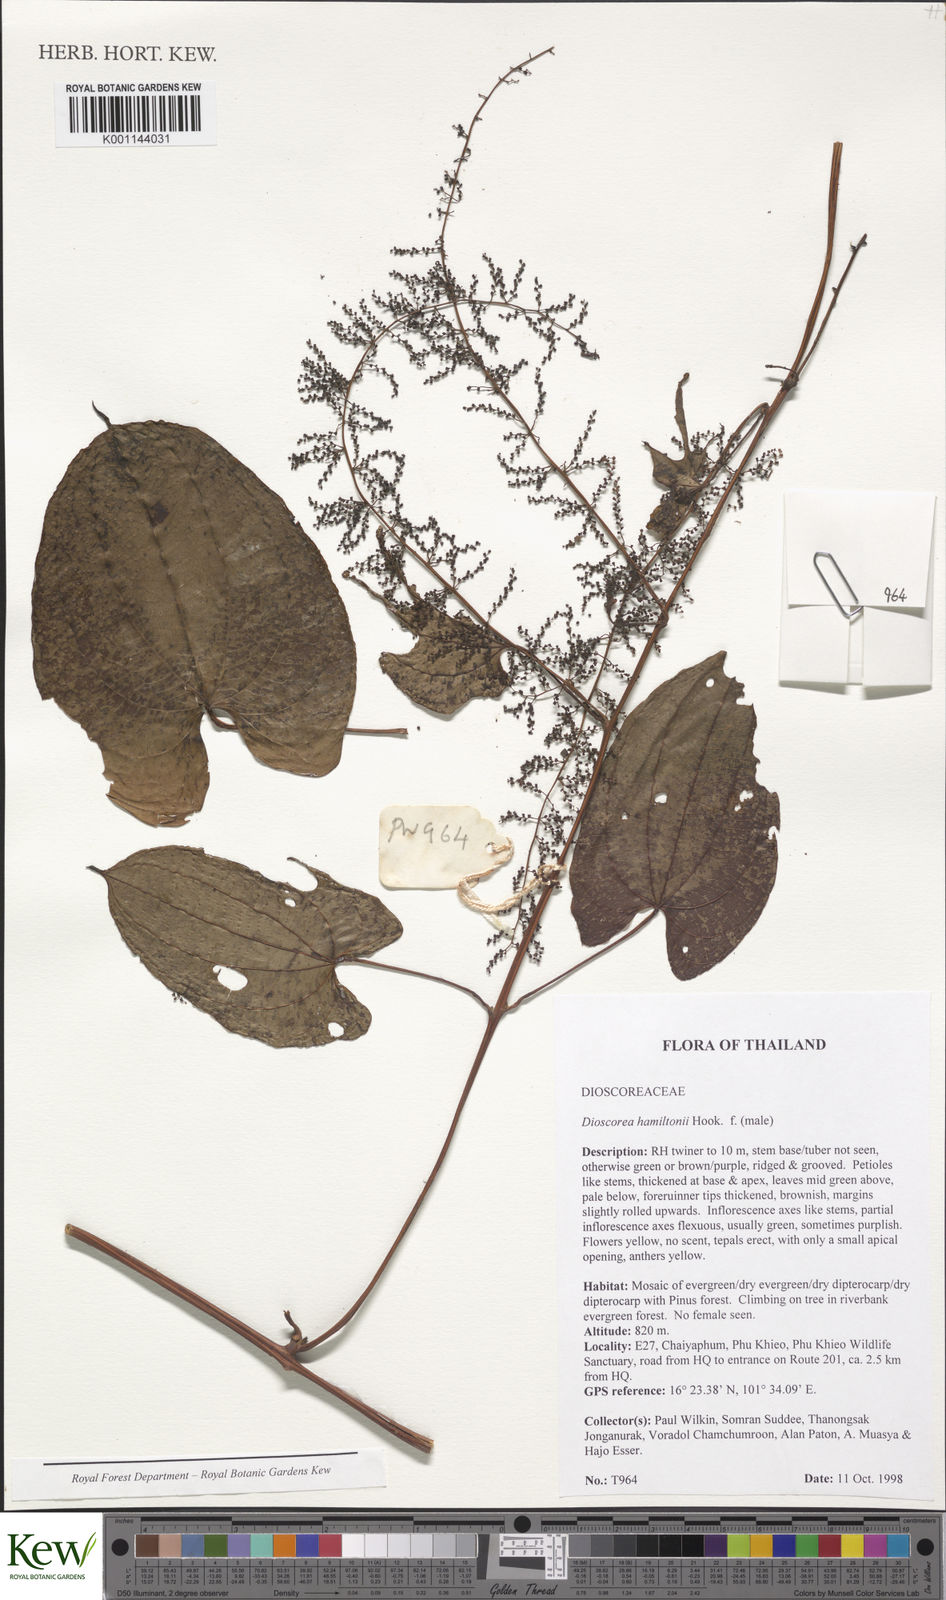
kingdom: Plantae
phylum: Tracheophyta
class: Liliopsida
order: Dioscoreales
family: Dioscoreaceae
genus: Dioscorea
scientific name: Dioscorea hamiltonii
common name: Mountain yam
